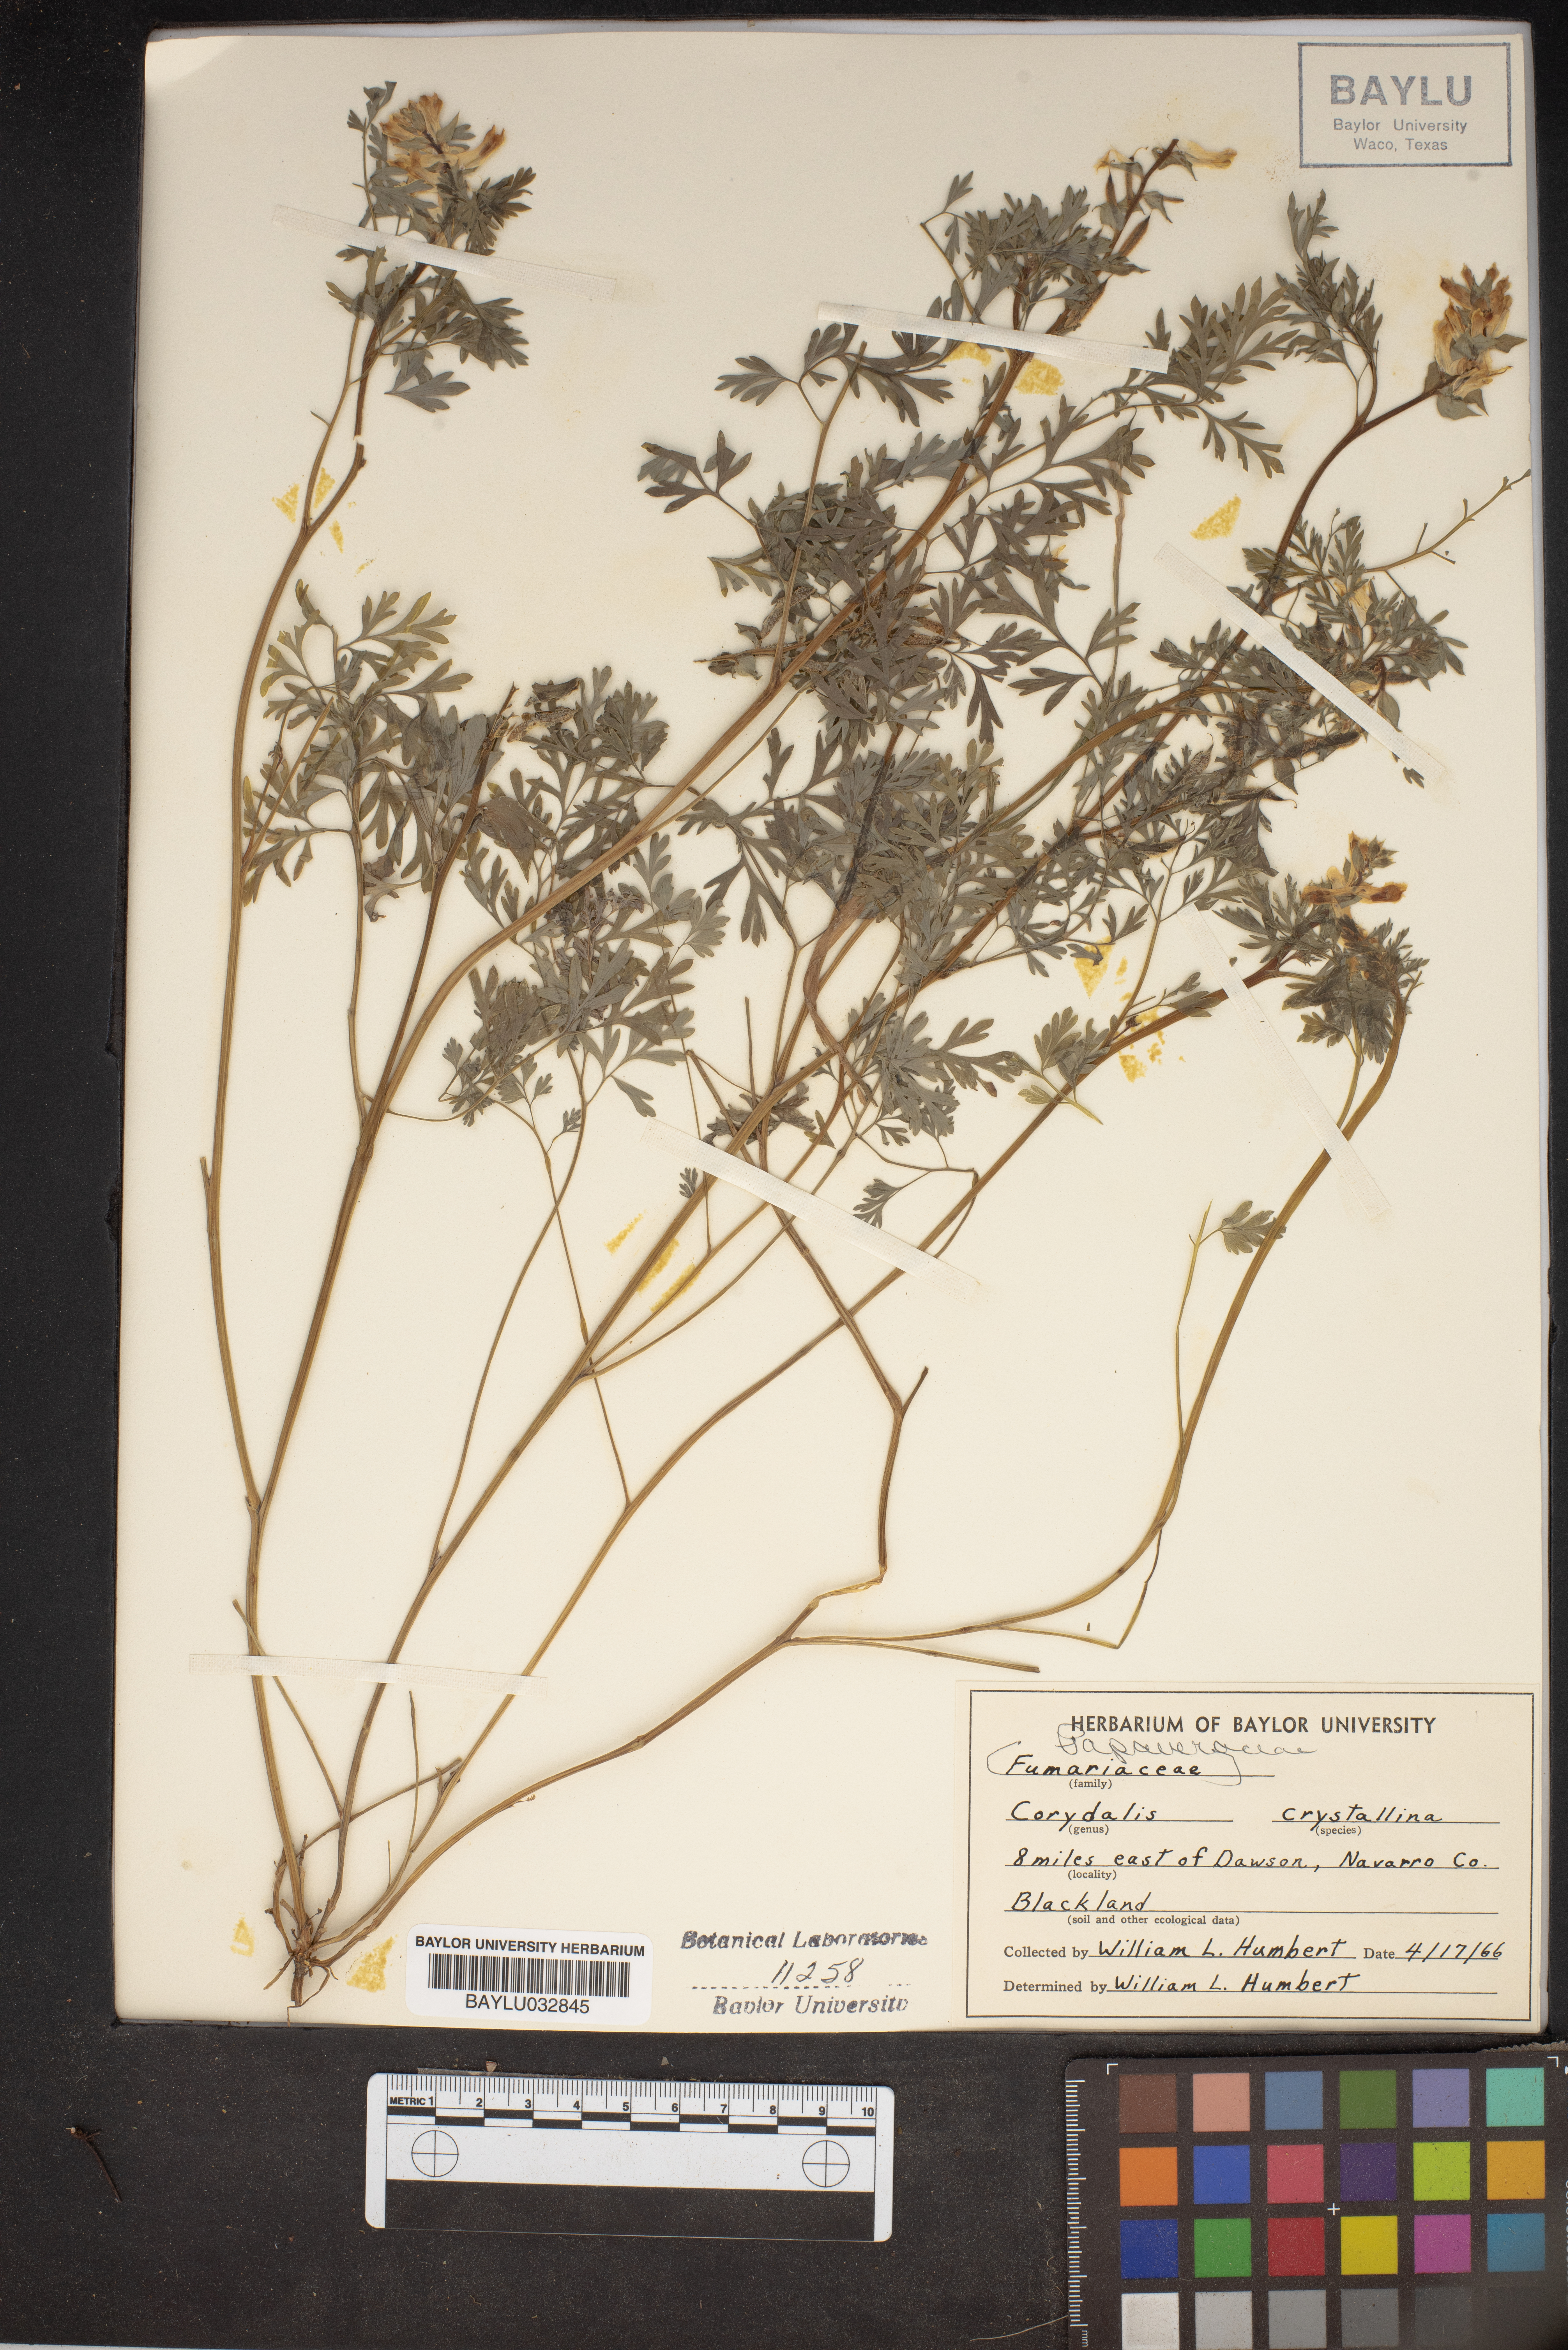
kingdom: Plantae
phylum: Tracheophyta
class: Magnoliopsida
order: Ranunculales
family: Papaveraceae
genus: Corydalis
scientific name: Corydalis crystallina
